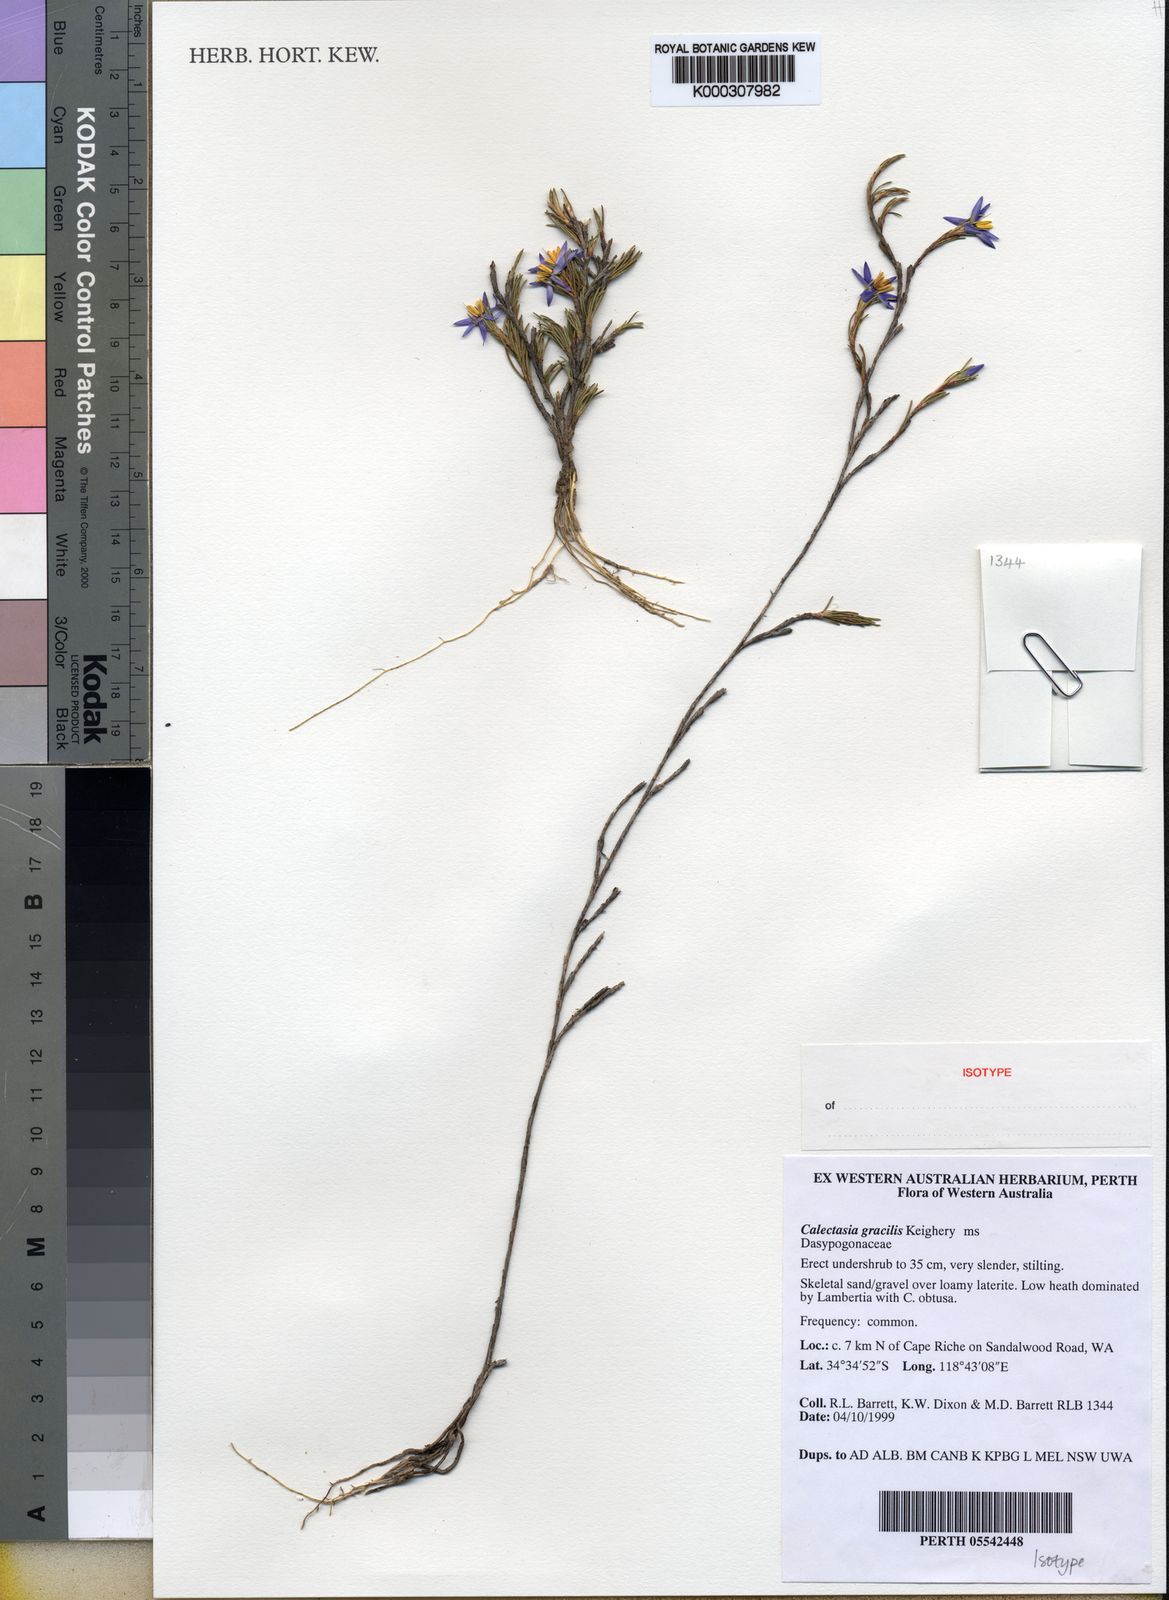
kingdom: Plantae
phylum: Tracheophyta
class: Liliopsida
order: Arecales
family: Dasypogonaceae
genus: Calectasia
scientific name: Calectasia gracilis
